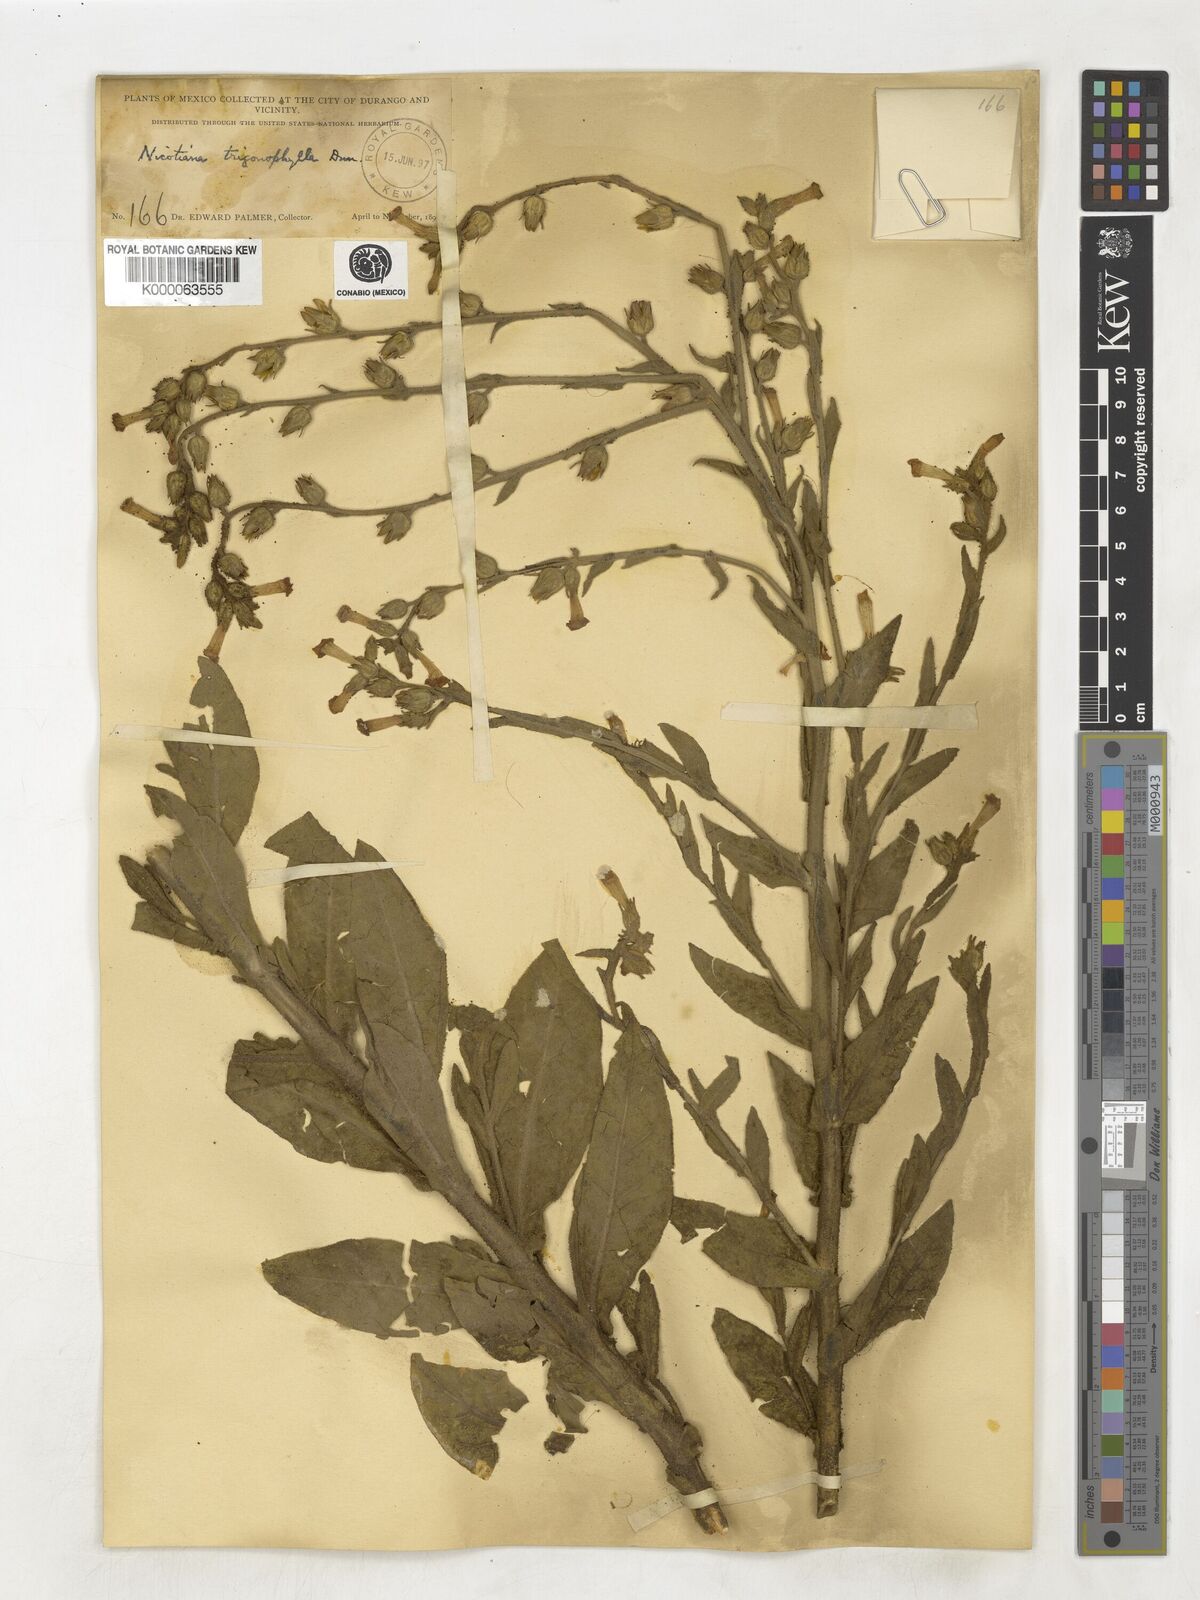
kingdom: Plantae
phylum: Tracheophyta
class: Magnoliopsida
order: Solanales
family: Solanaceae
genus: Nicotiana
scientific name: Nicotiana obtusifolia
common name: Desert tobacco
